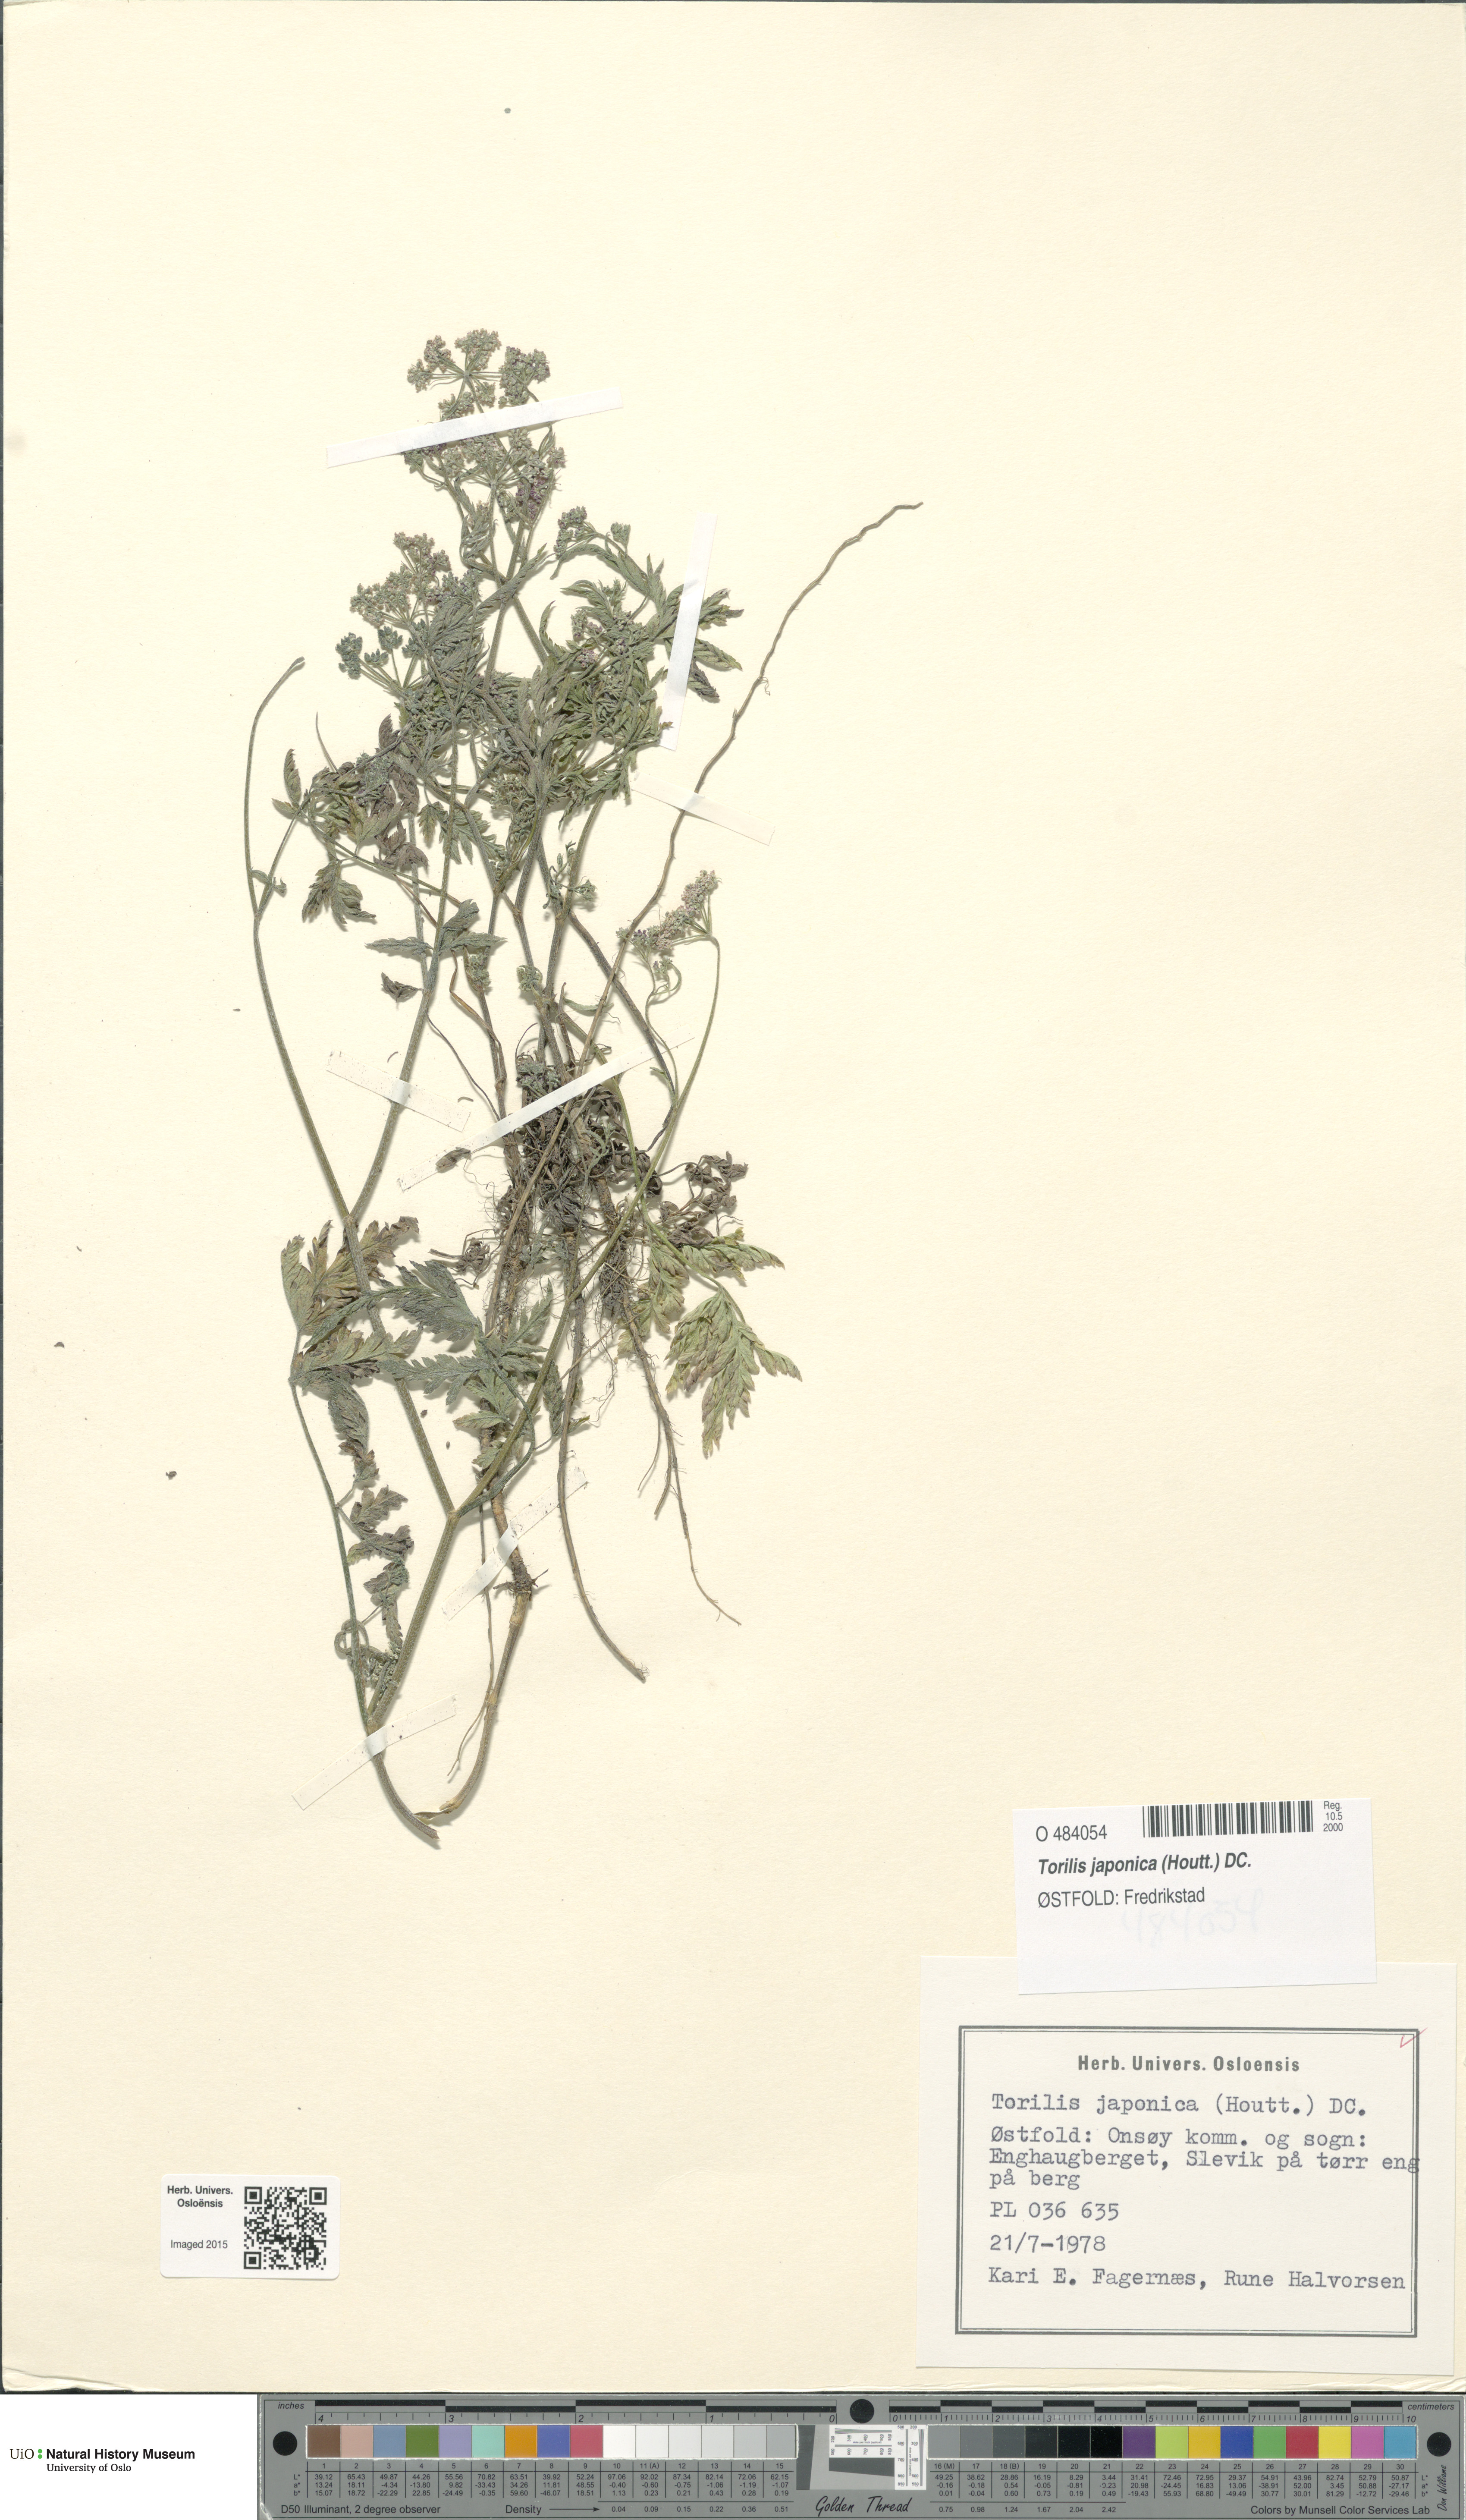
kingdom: Plantae
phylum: Tracheophyta
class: Magnoliopsida
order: Apiales
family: Apiaceae
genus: Torilis
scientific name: Torilis japonica
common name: Upright hedge-parsley
